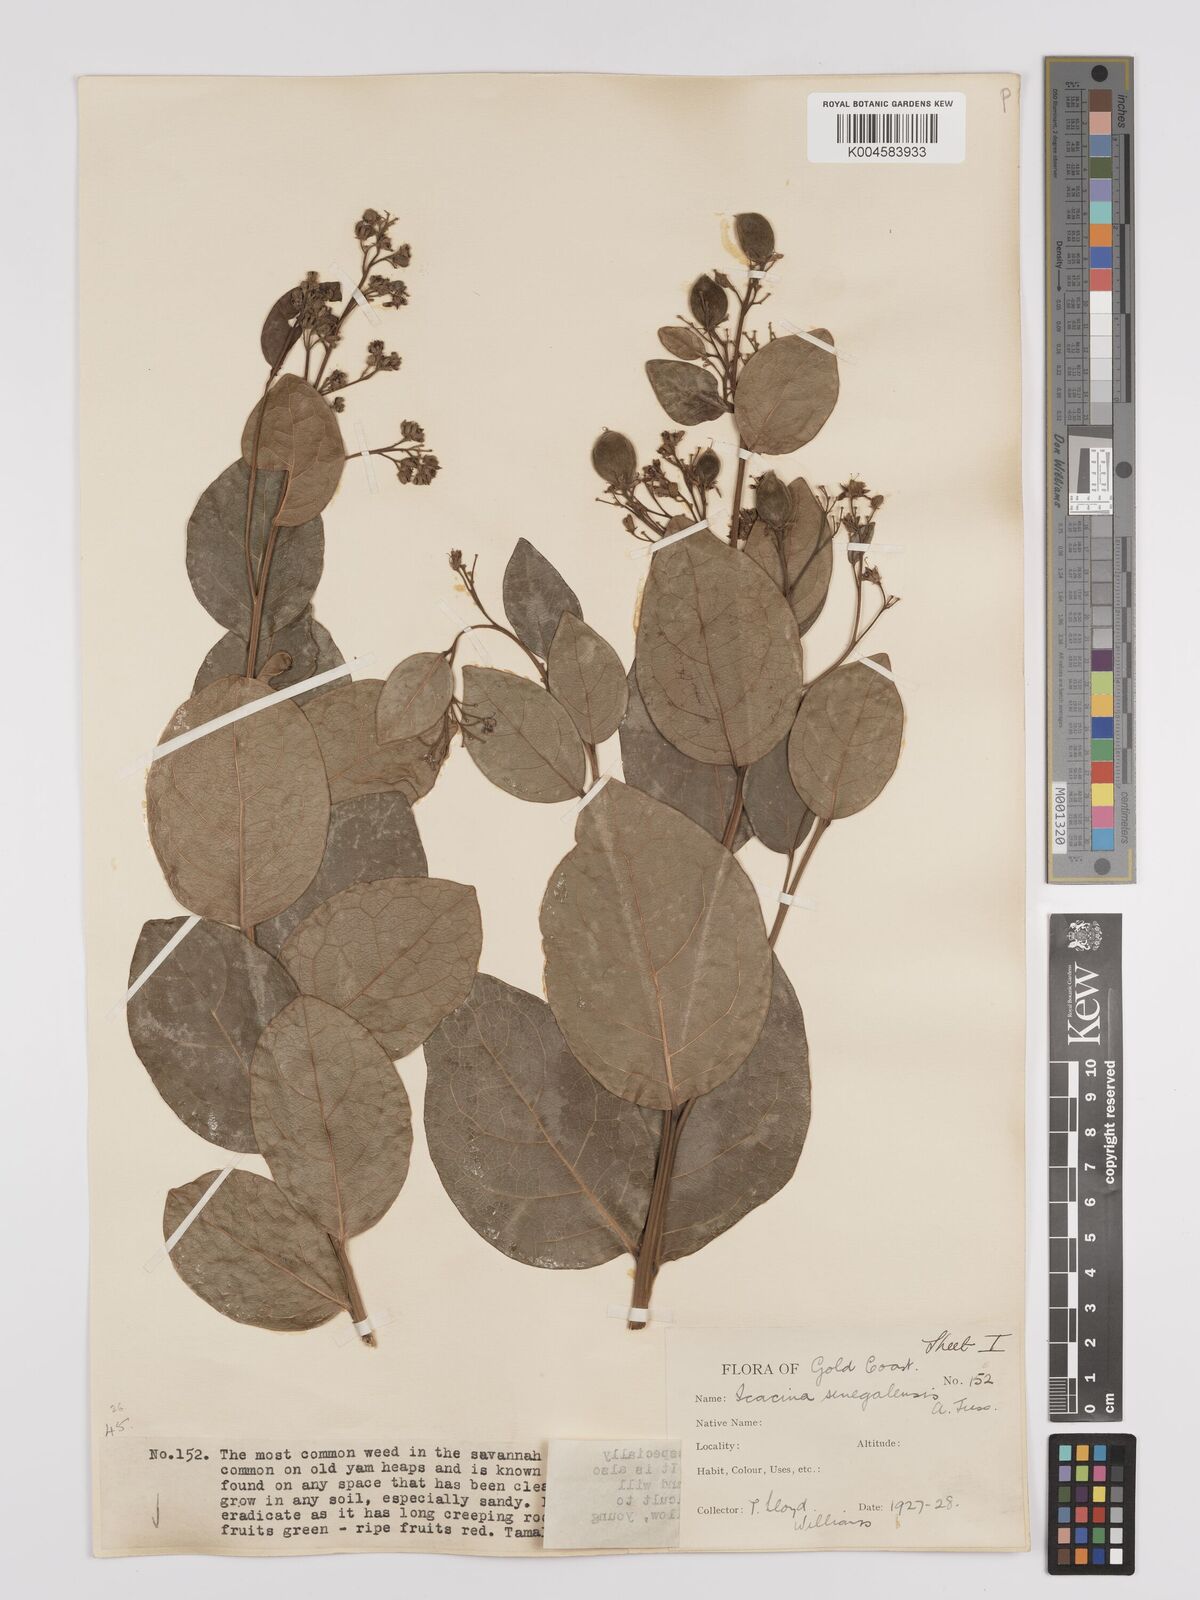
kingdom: Plantae
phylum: Tracheophyta
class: Magnoliopsida
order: Icacinales
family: Icacinaceae
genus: Icacina
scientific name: Icacina oliviformis
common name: False yam
